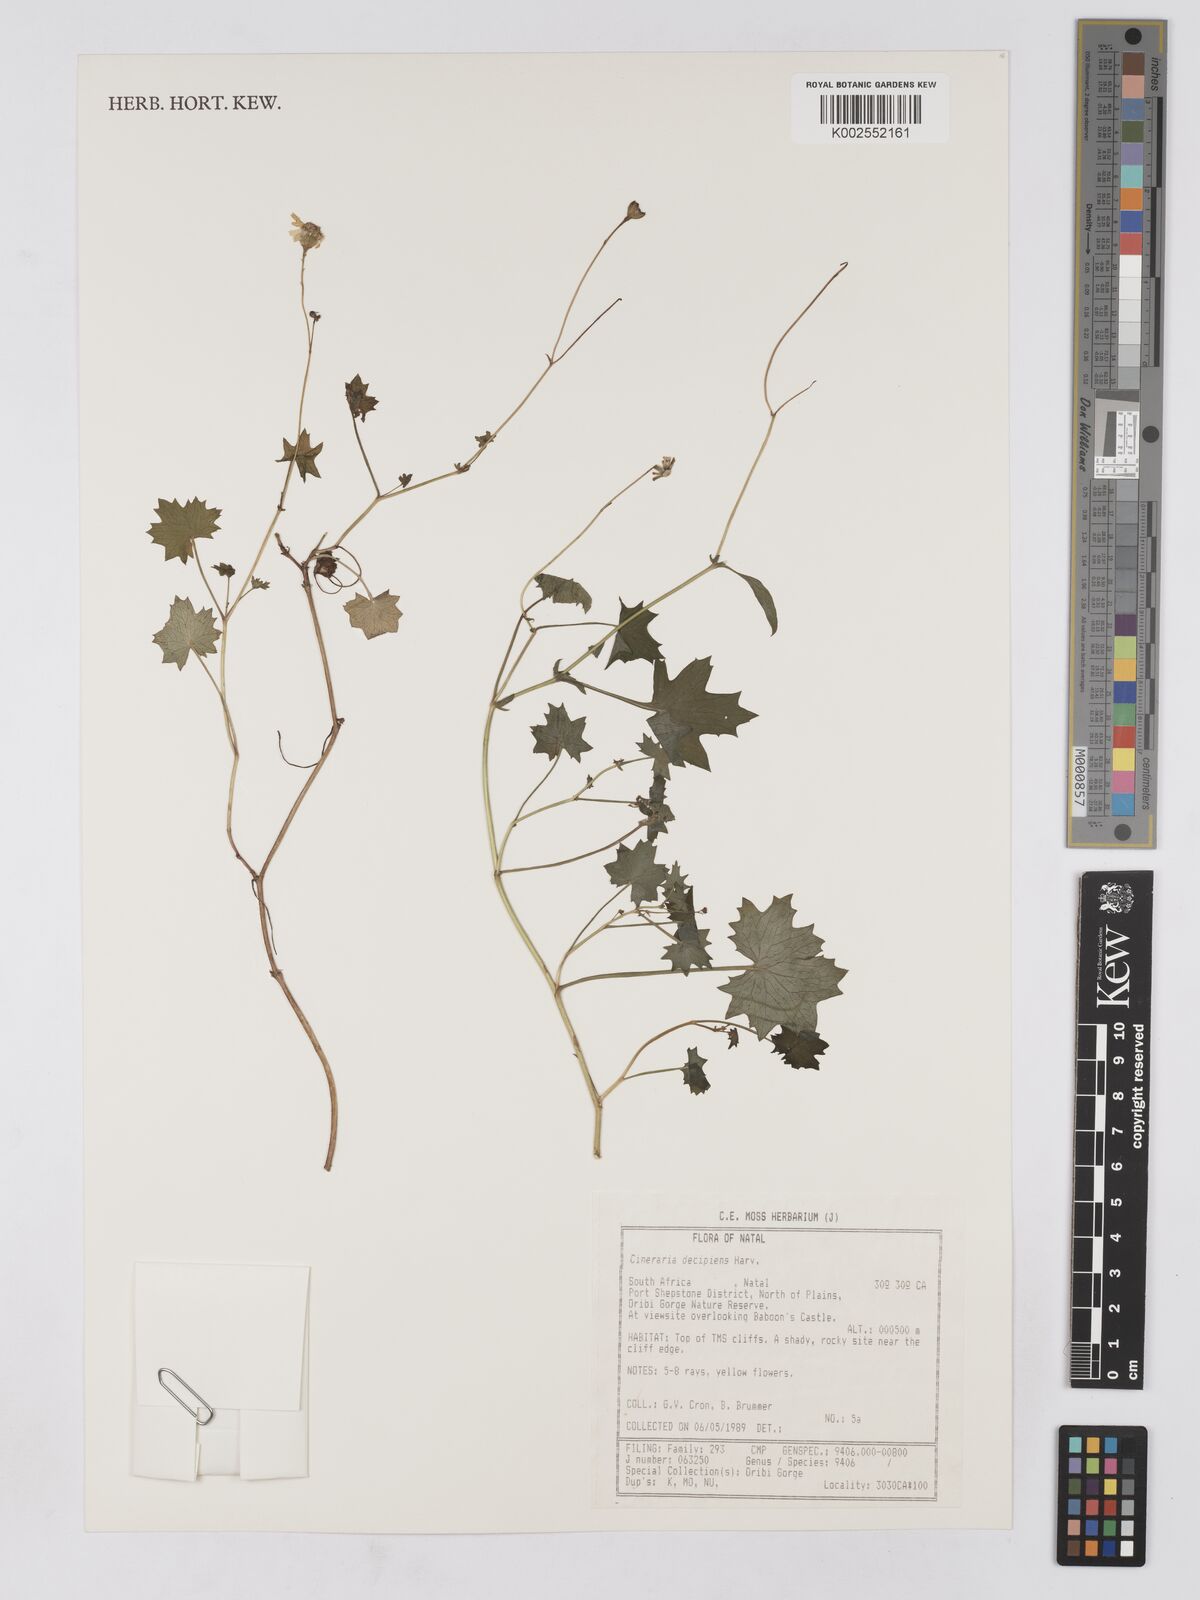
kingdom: Plantae
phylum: Tracheophyta
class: Magnoliopsida
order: Asterales
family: Asteraceae
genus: Cineraria
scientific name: Cineraria decipiens
